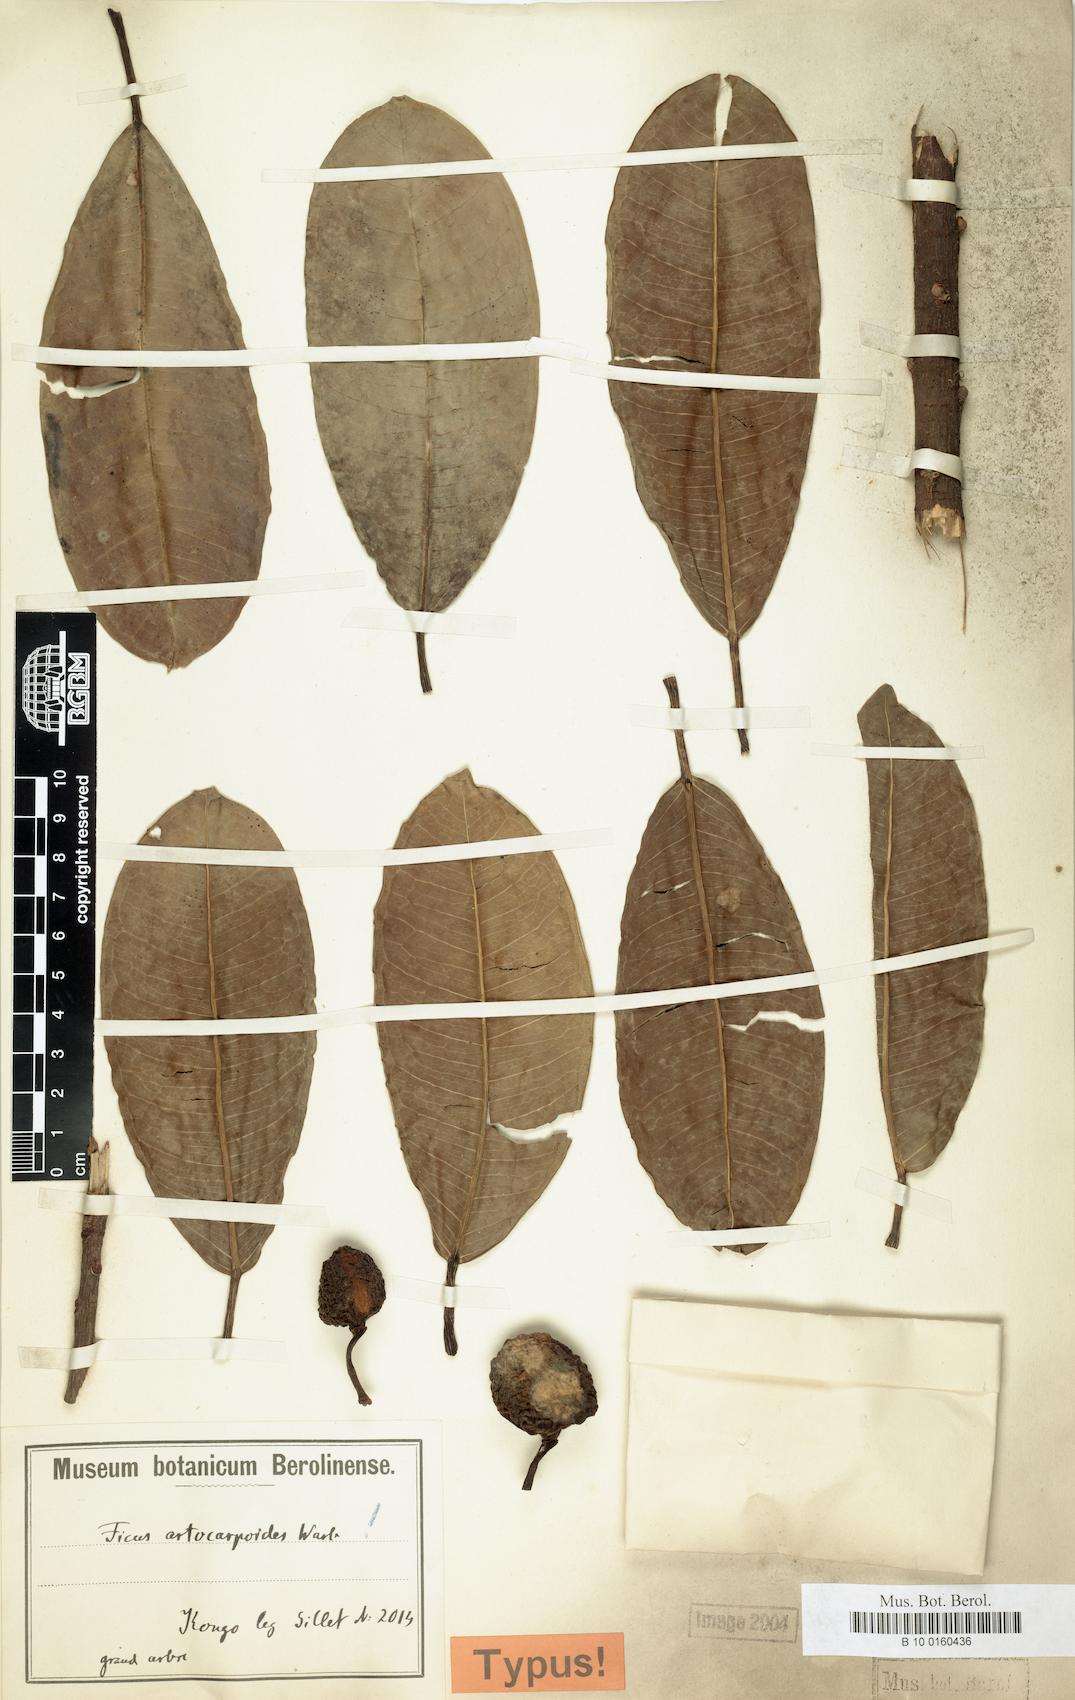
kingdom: Plantae
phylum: Tracheophyta
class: Magnoliopsida
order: Rosales
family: Moraceae
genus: Ficus
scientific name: Ficus demeusei
